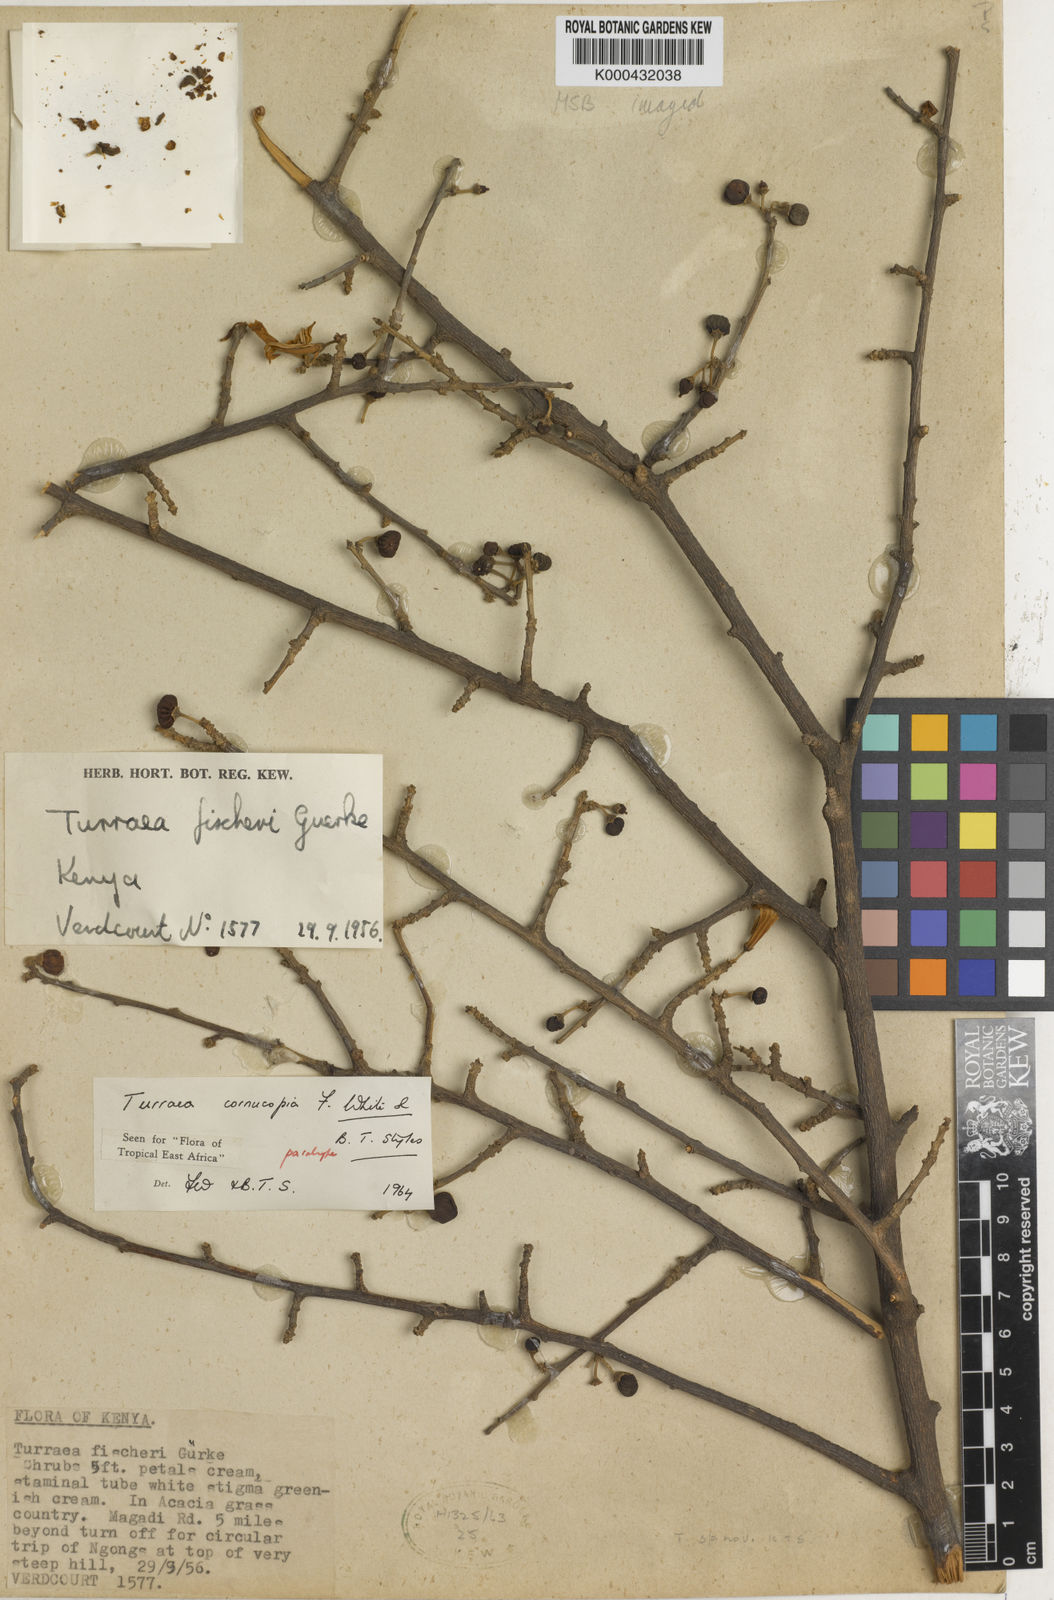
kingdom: Plantae
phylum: Tracheophyta
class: Magnoliopsida
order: Sapindales
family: Meliaceae
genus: Turraea
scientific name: Turraea cornucopia
